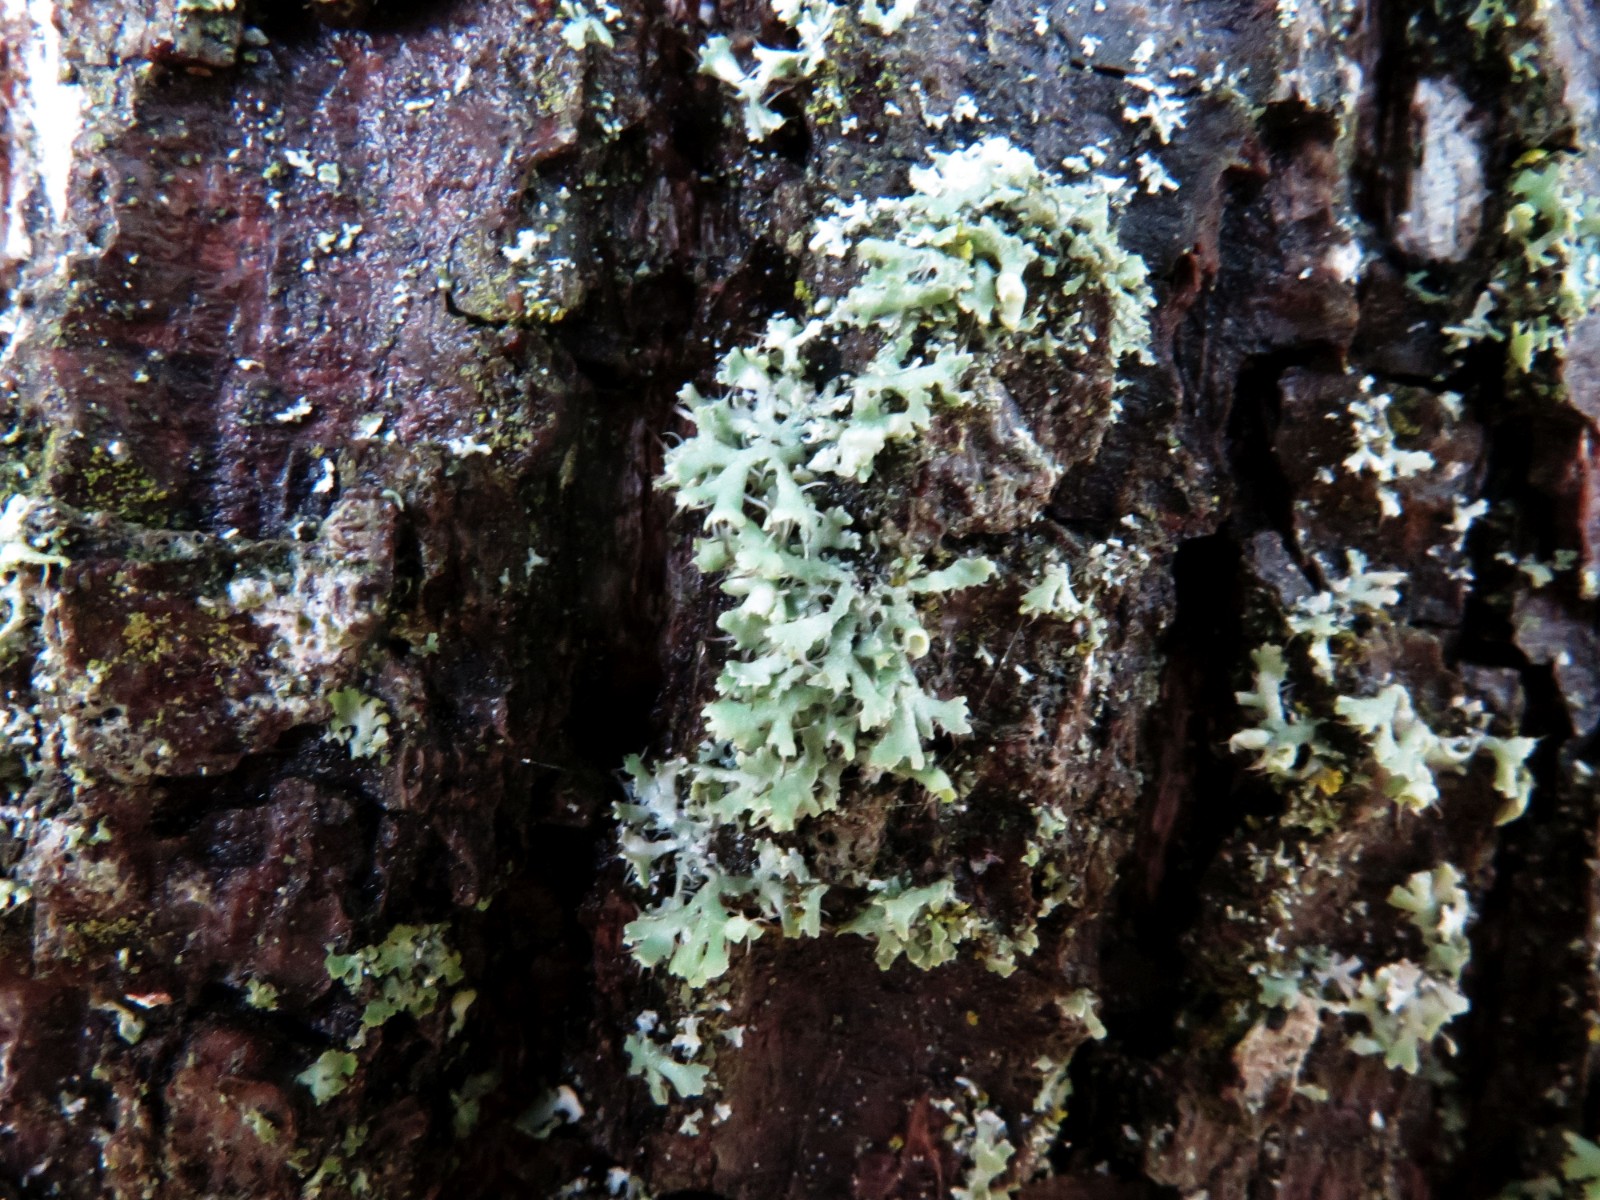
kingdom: Fungi
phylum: Ascomycota
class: Lecanoromycetes
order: Caliciales
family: Physciaceae
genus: Physcia
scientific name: Physcia tenella
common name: spæd rosetlav
